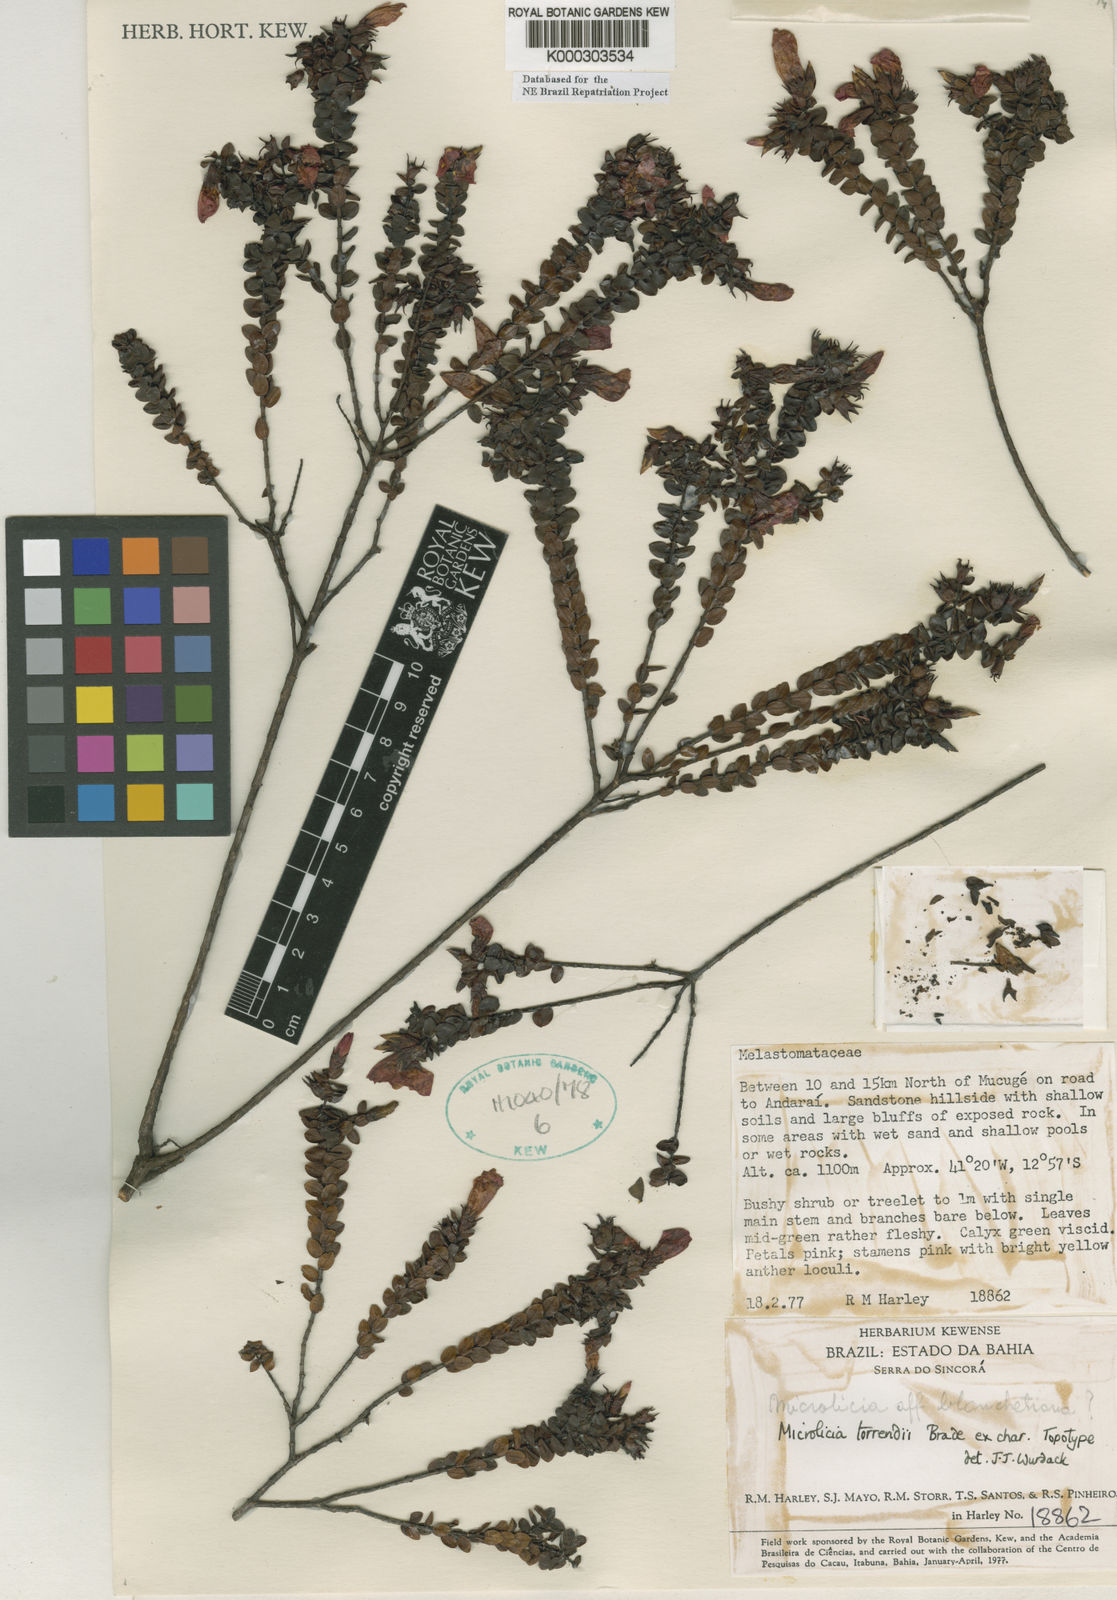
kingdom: Plantae
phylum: Tracheophyta
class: Magnoliopsida
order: Myrtales
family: Melastomataceae
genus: Microlicia
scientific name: Microlicia
